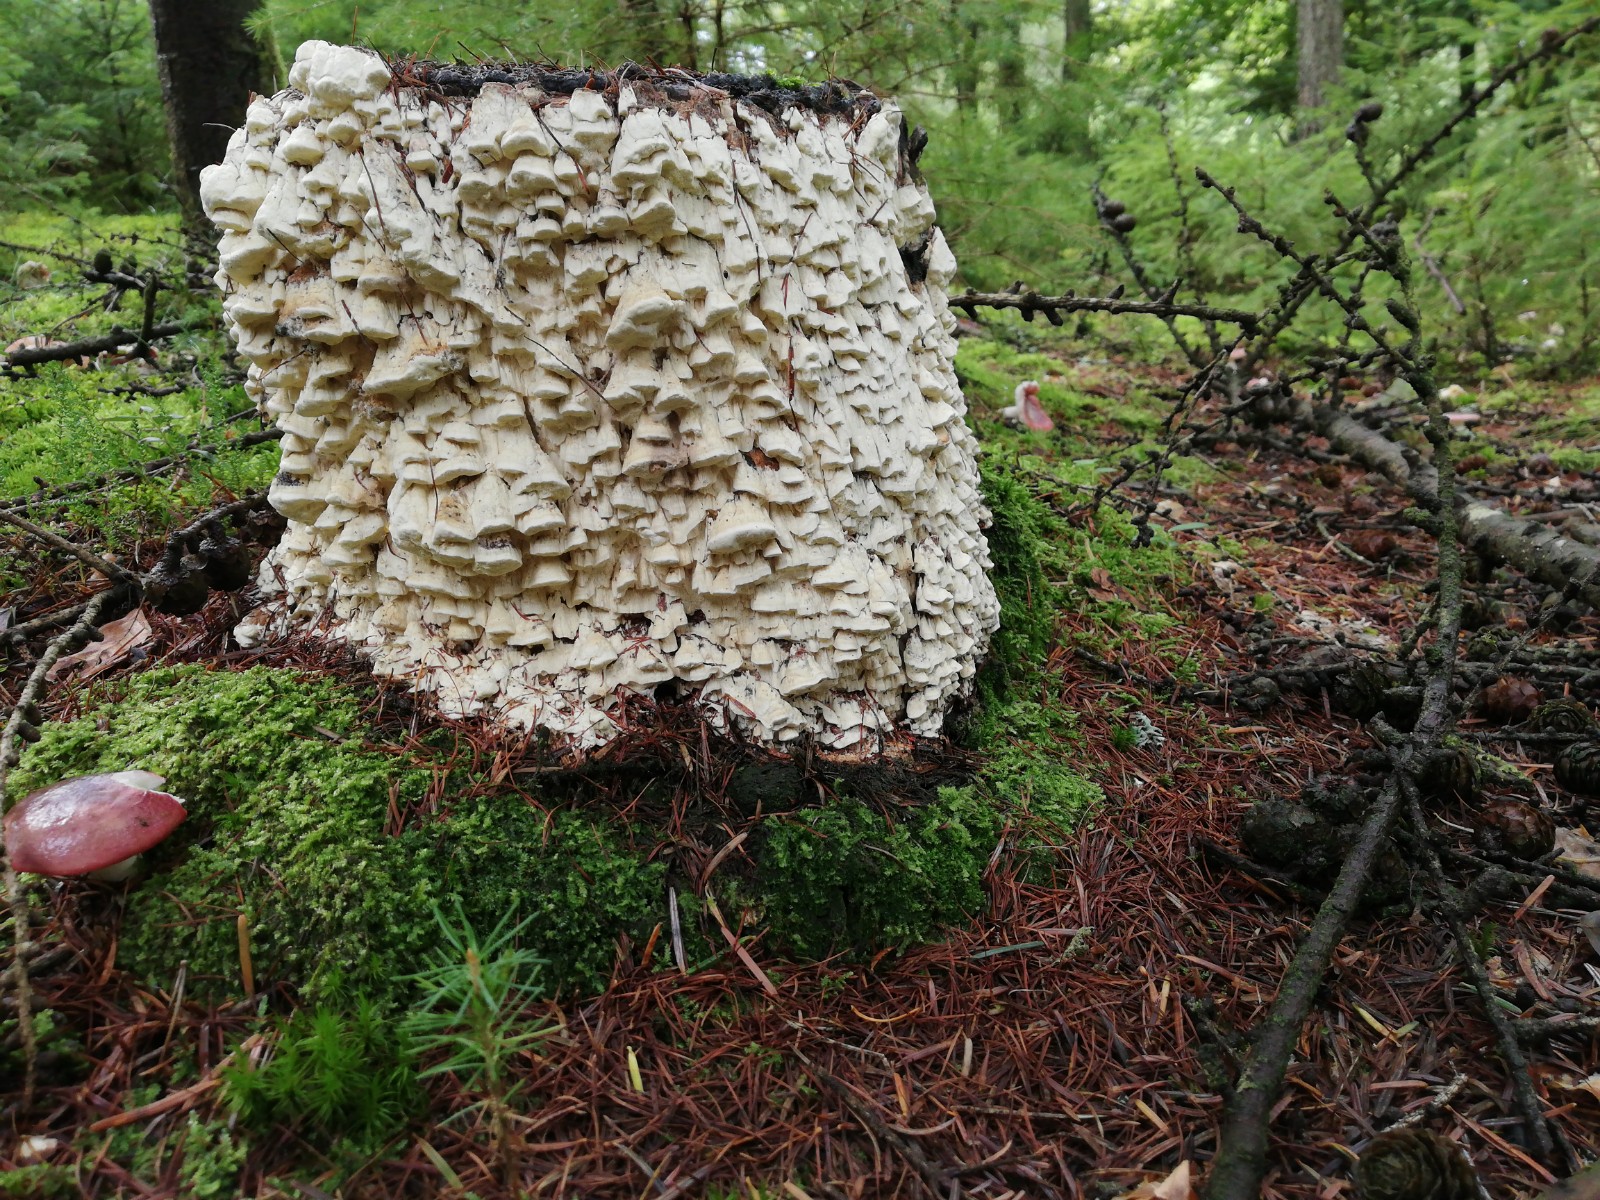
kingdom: Fungi
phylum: Basidiomycota
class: Agaricomycetes
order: Polyporales
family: Fomitopsidaceae
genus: Daedalea
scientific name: Daedalea xantha
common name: gul sejporesvamp
